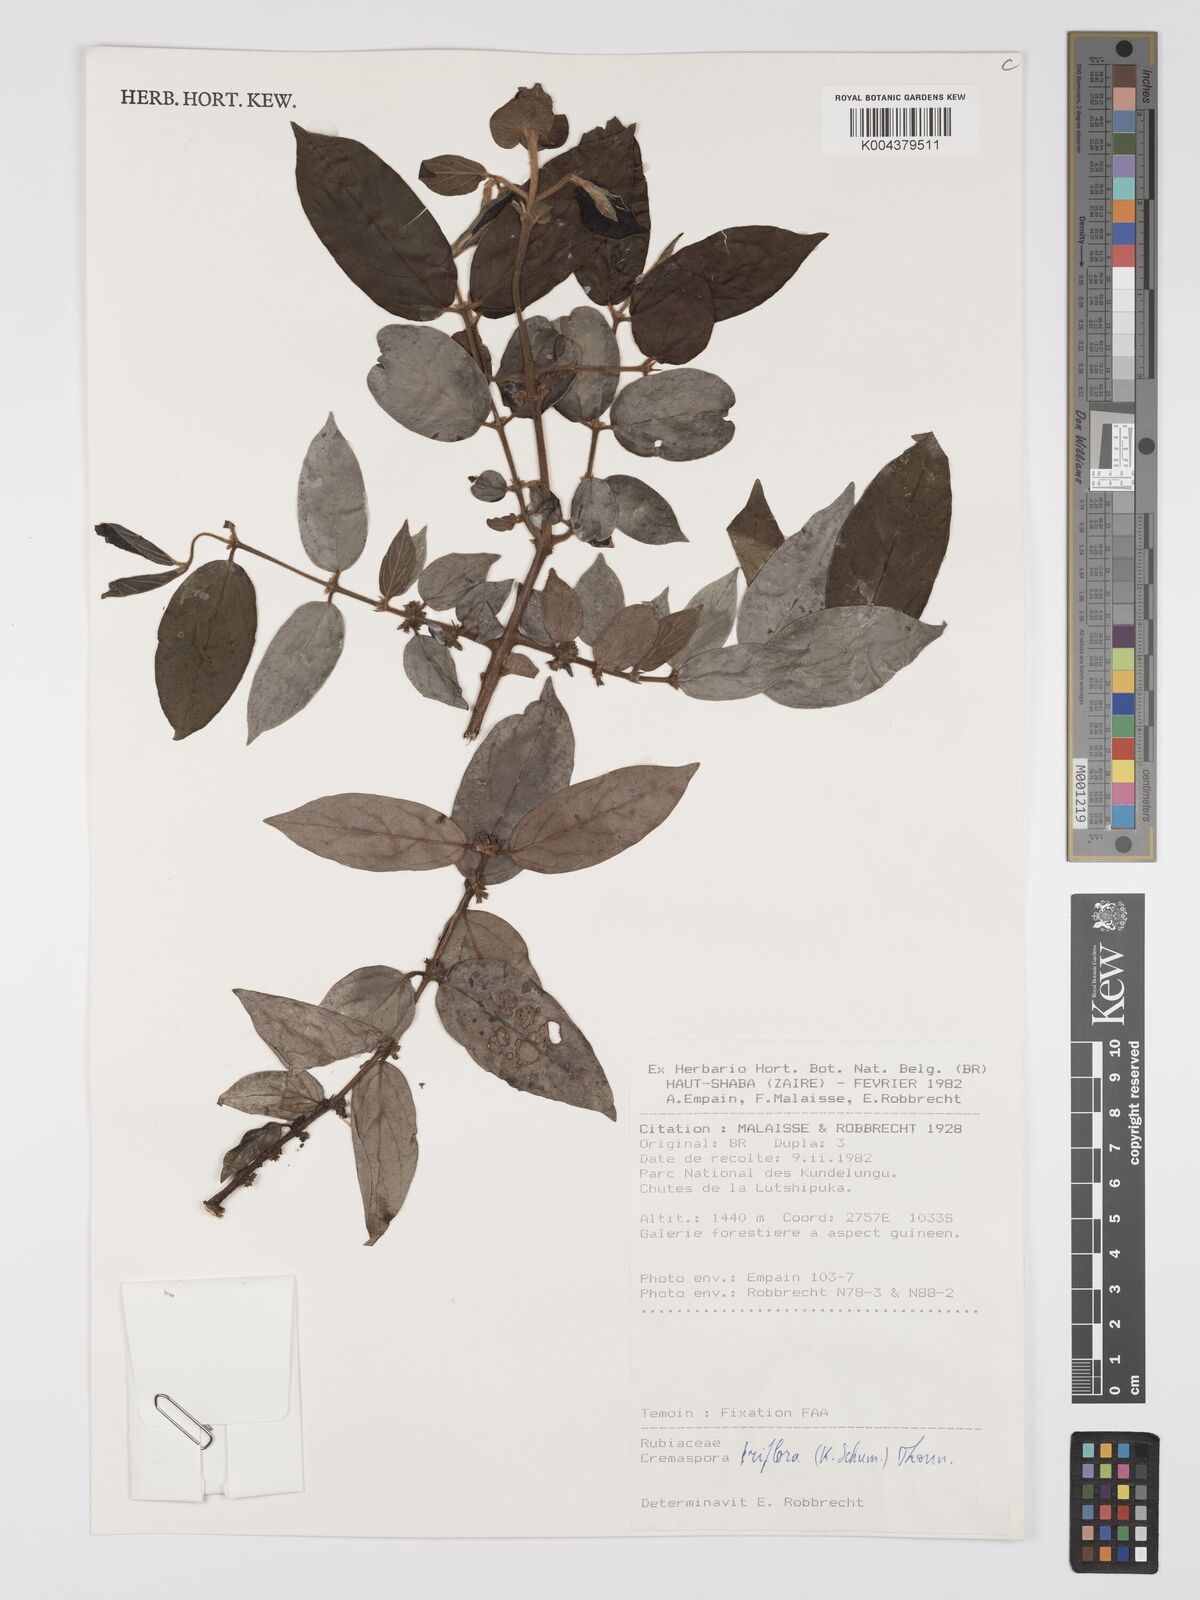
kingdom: Plantae
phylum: Tracheophyta
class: Magnoliopsida
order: Gentianales
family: Rubiaceae
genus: Cremaspora
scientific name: Cremaspora triflora
